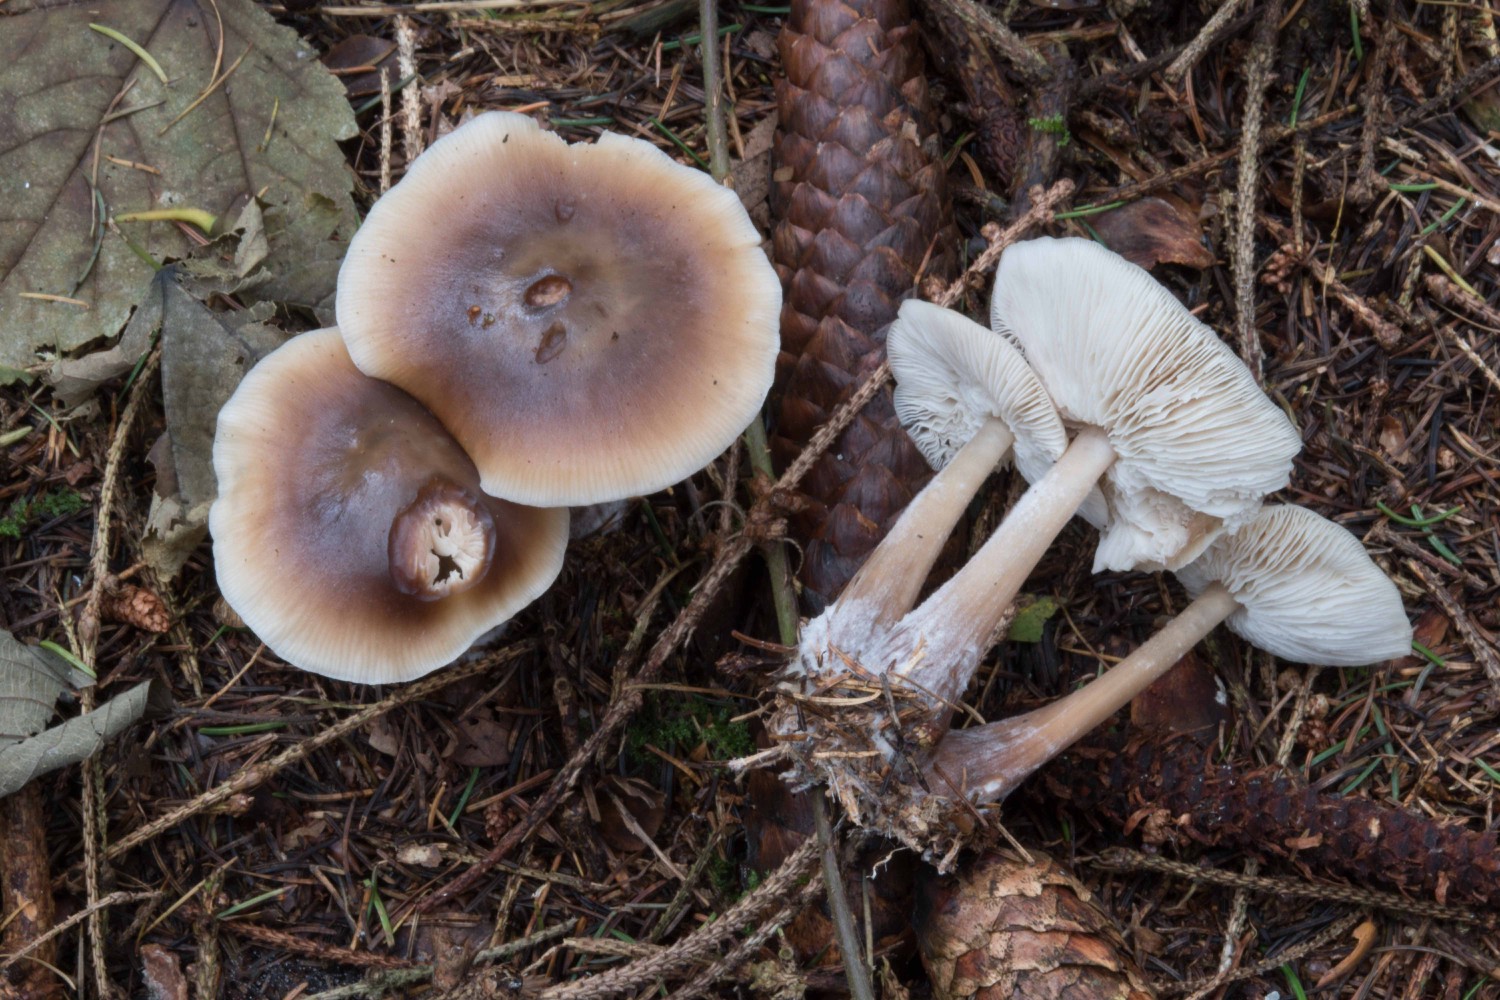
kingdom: Fungi
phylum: Basidiomycota
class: Agaricomycetes
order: Agaricales
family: Omphalotaceae
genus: Rhodocollybia
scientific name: Rhodocollybia asema
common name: horngrå fladhat
